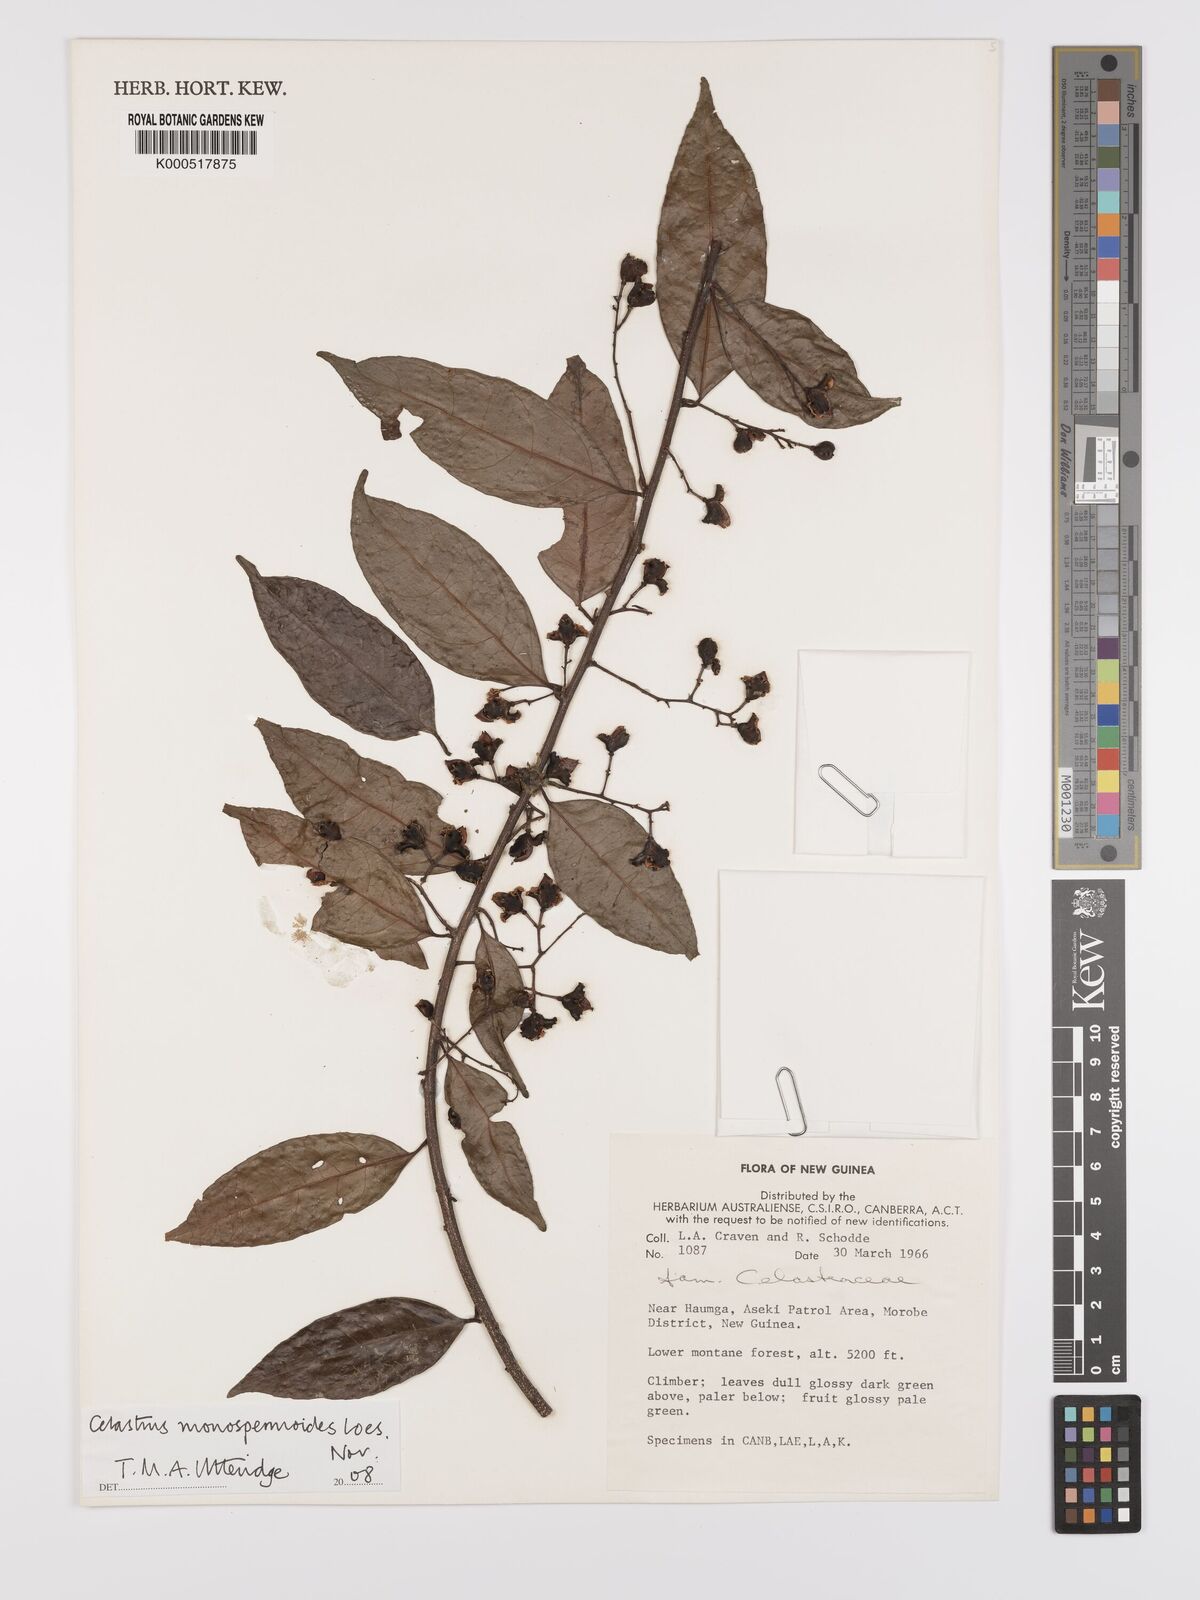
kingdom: Plantae
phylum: Tracheophyta
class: Magnoliopsida
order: Celastrales
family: Celastraceae
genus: Celastrus
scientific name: Celastrus monospermoides
